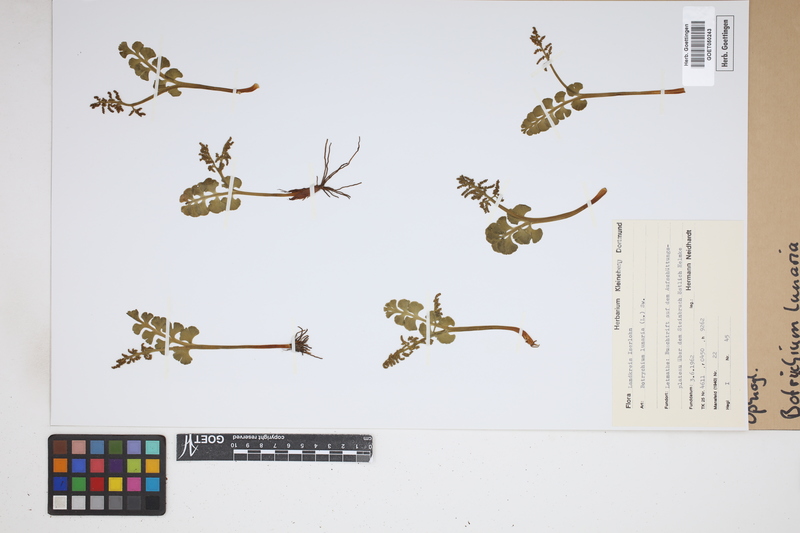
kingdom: Plantae
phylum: Tracheophyta
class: Polypodiopsida
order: Ophioglossales
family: Ophioglossaceae
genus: Botrychium
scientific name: Botrychium lunaria
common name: Moonwort
